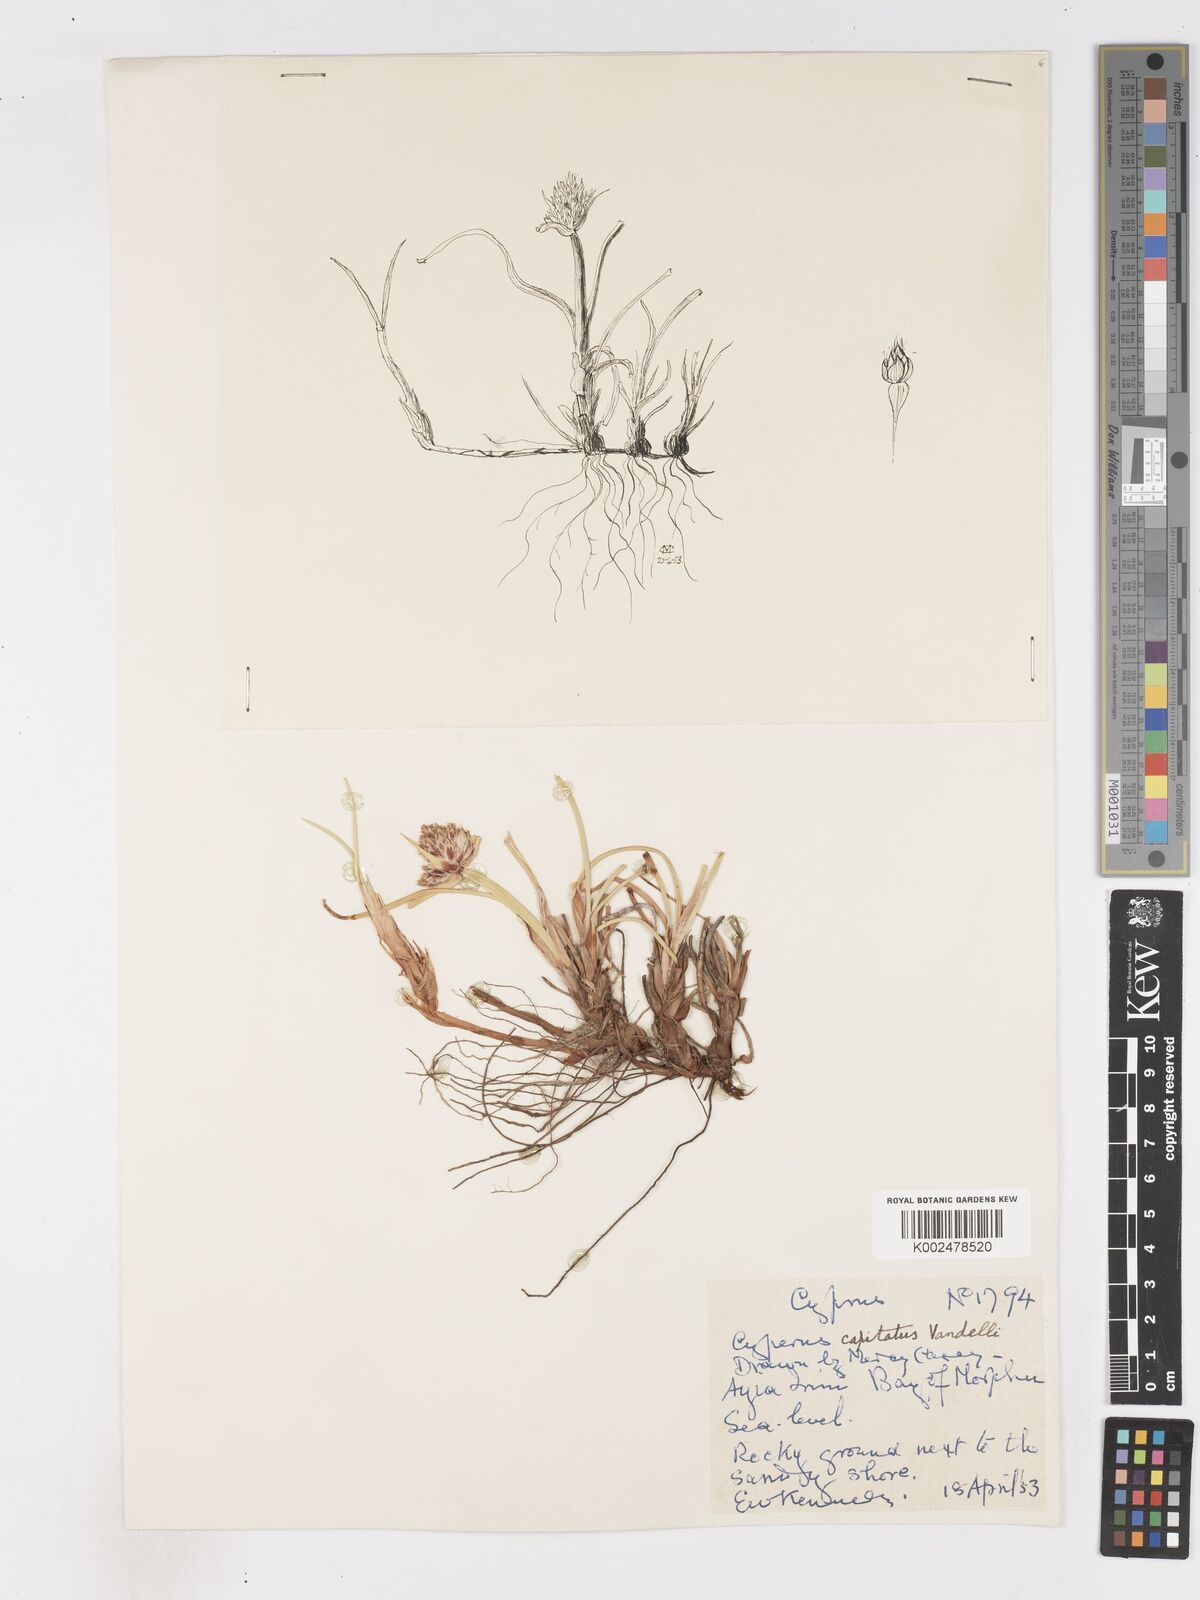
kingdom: Plantae
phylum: Tracheophyta
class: Liliopsida
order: Poales
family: Cyperaceae
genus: Cyperus
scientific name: Cyperus capitatus
